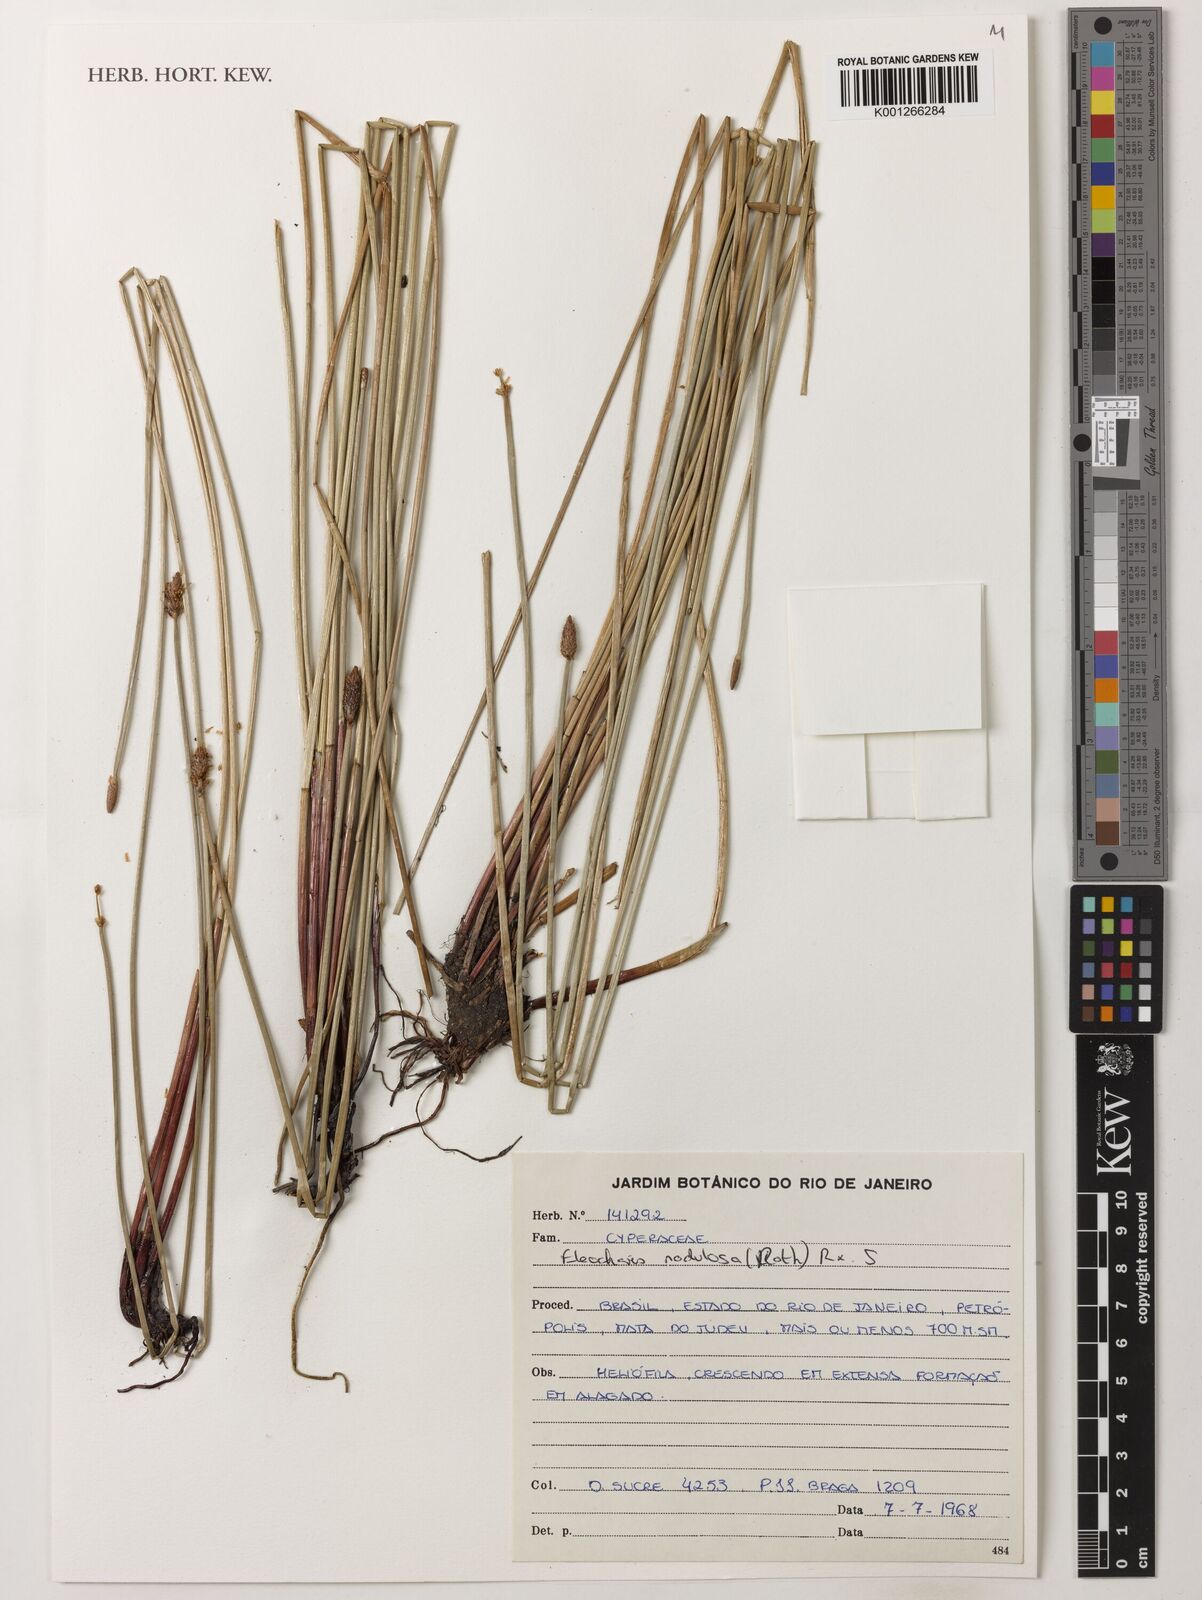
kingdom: Plantae
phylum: Tracheophyta
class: Liliopsida
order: Poales
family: Cyperaceae
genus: Eleocharis
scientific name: Eleocharis montana
